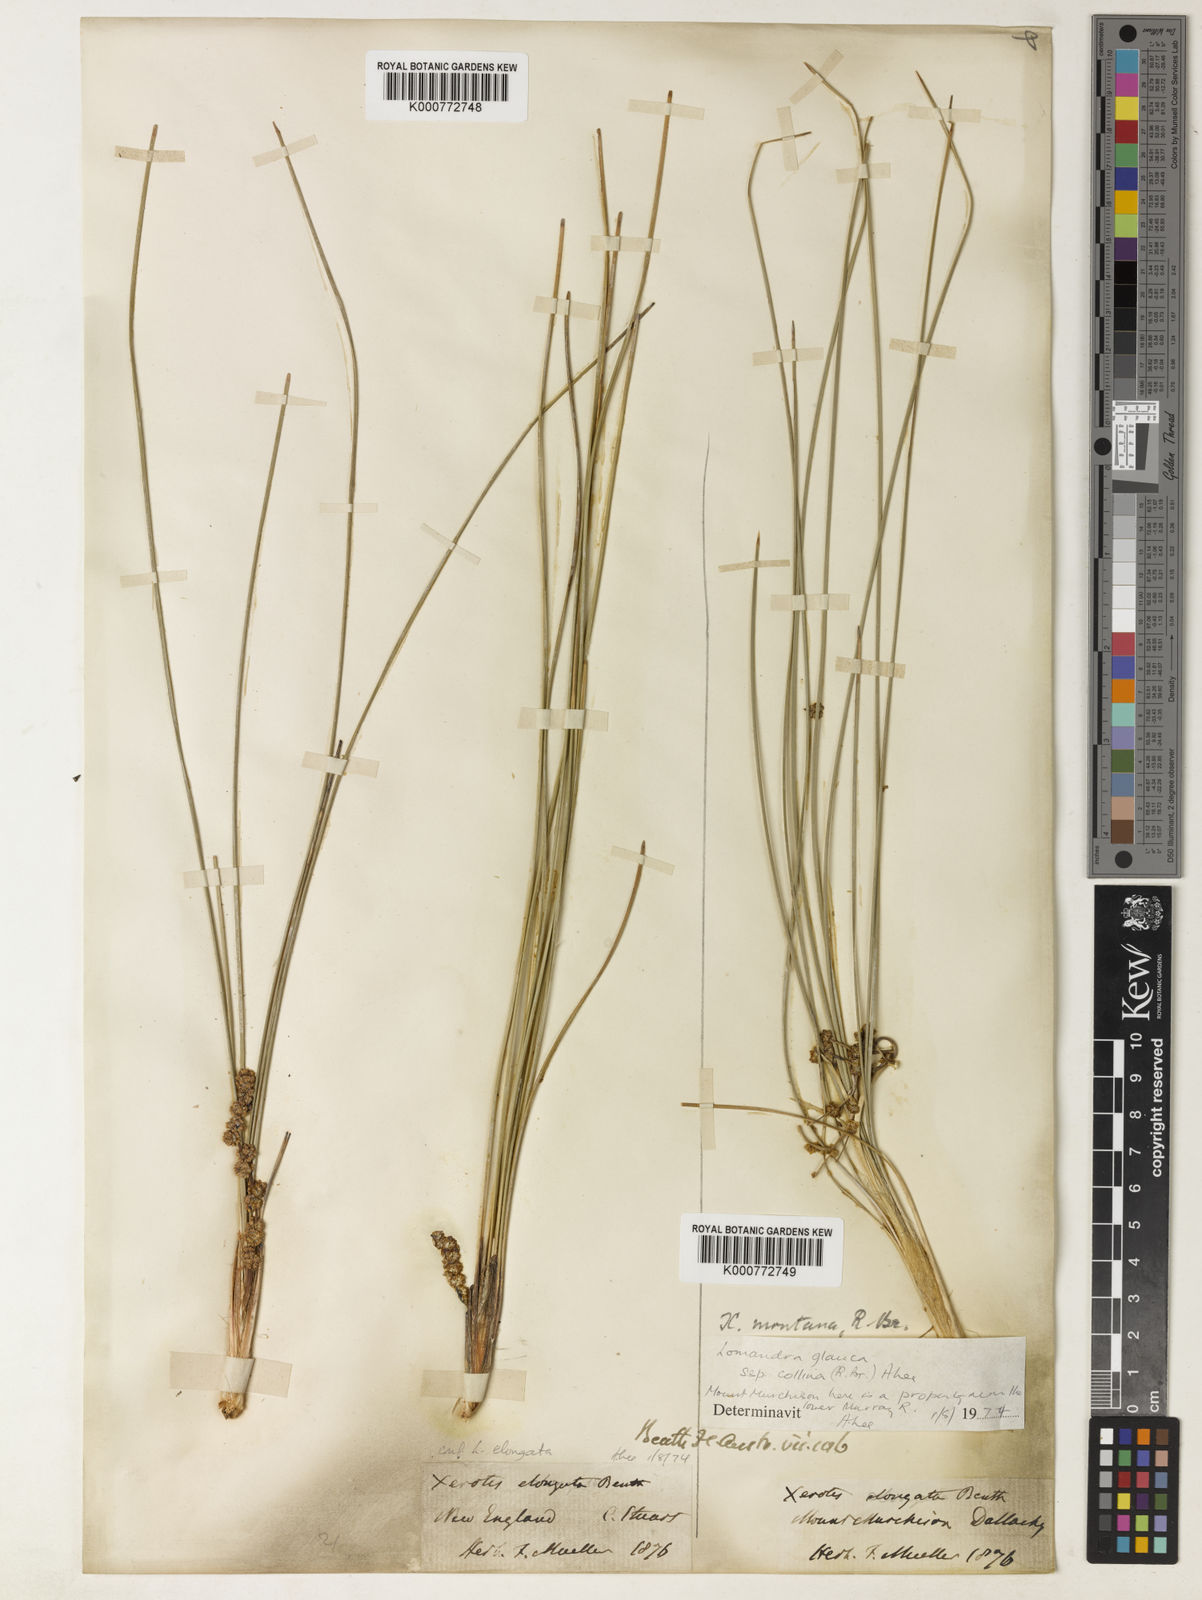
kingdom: Plantae
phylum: Tracheophyta
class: Liliopsida
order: Asparagales
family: Asparagaceae
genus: Lomandra
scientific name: Lomandra elongata
